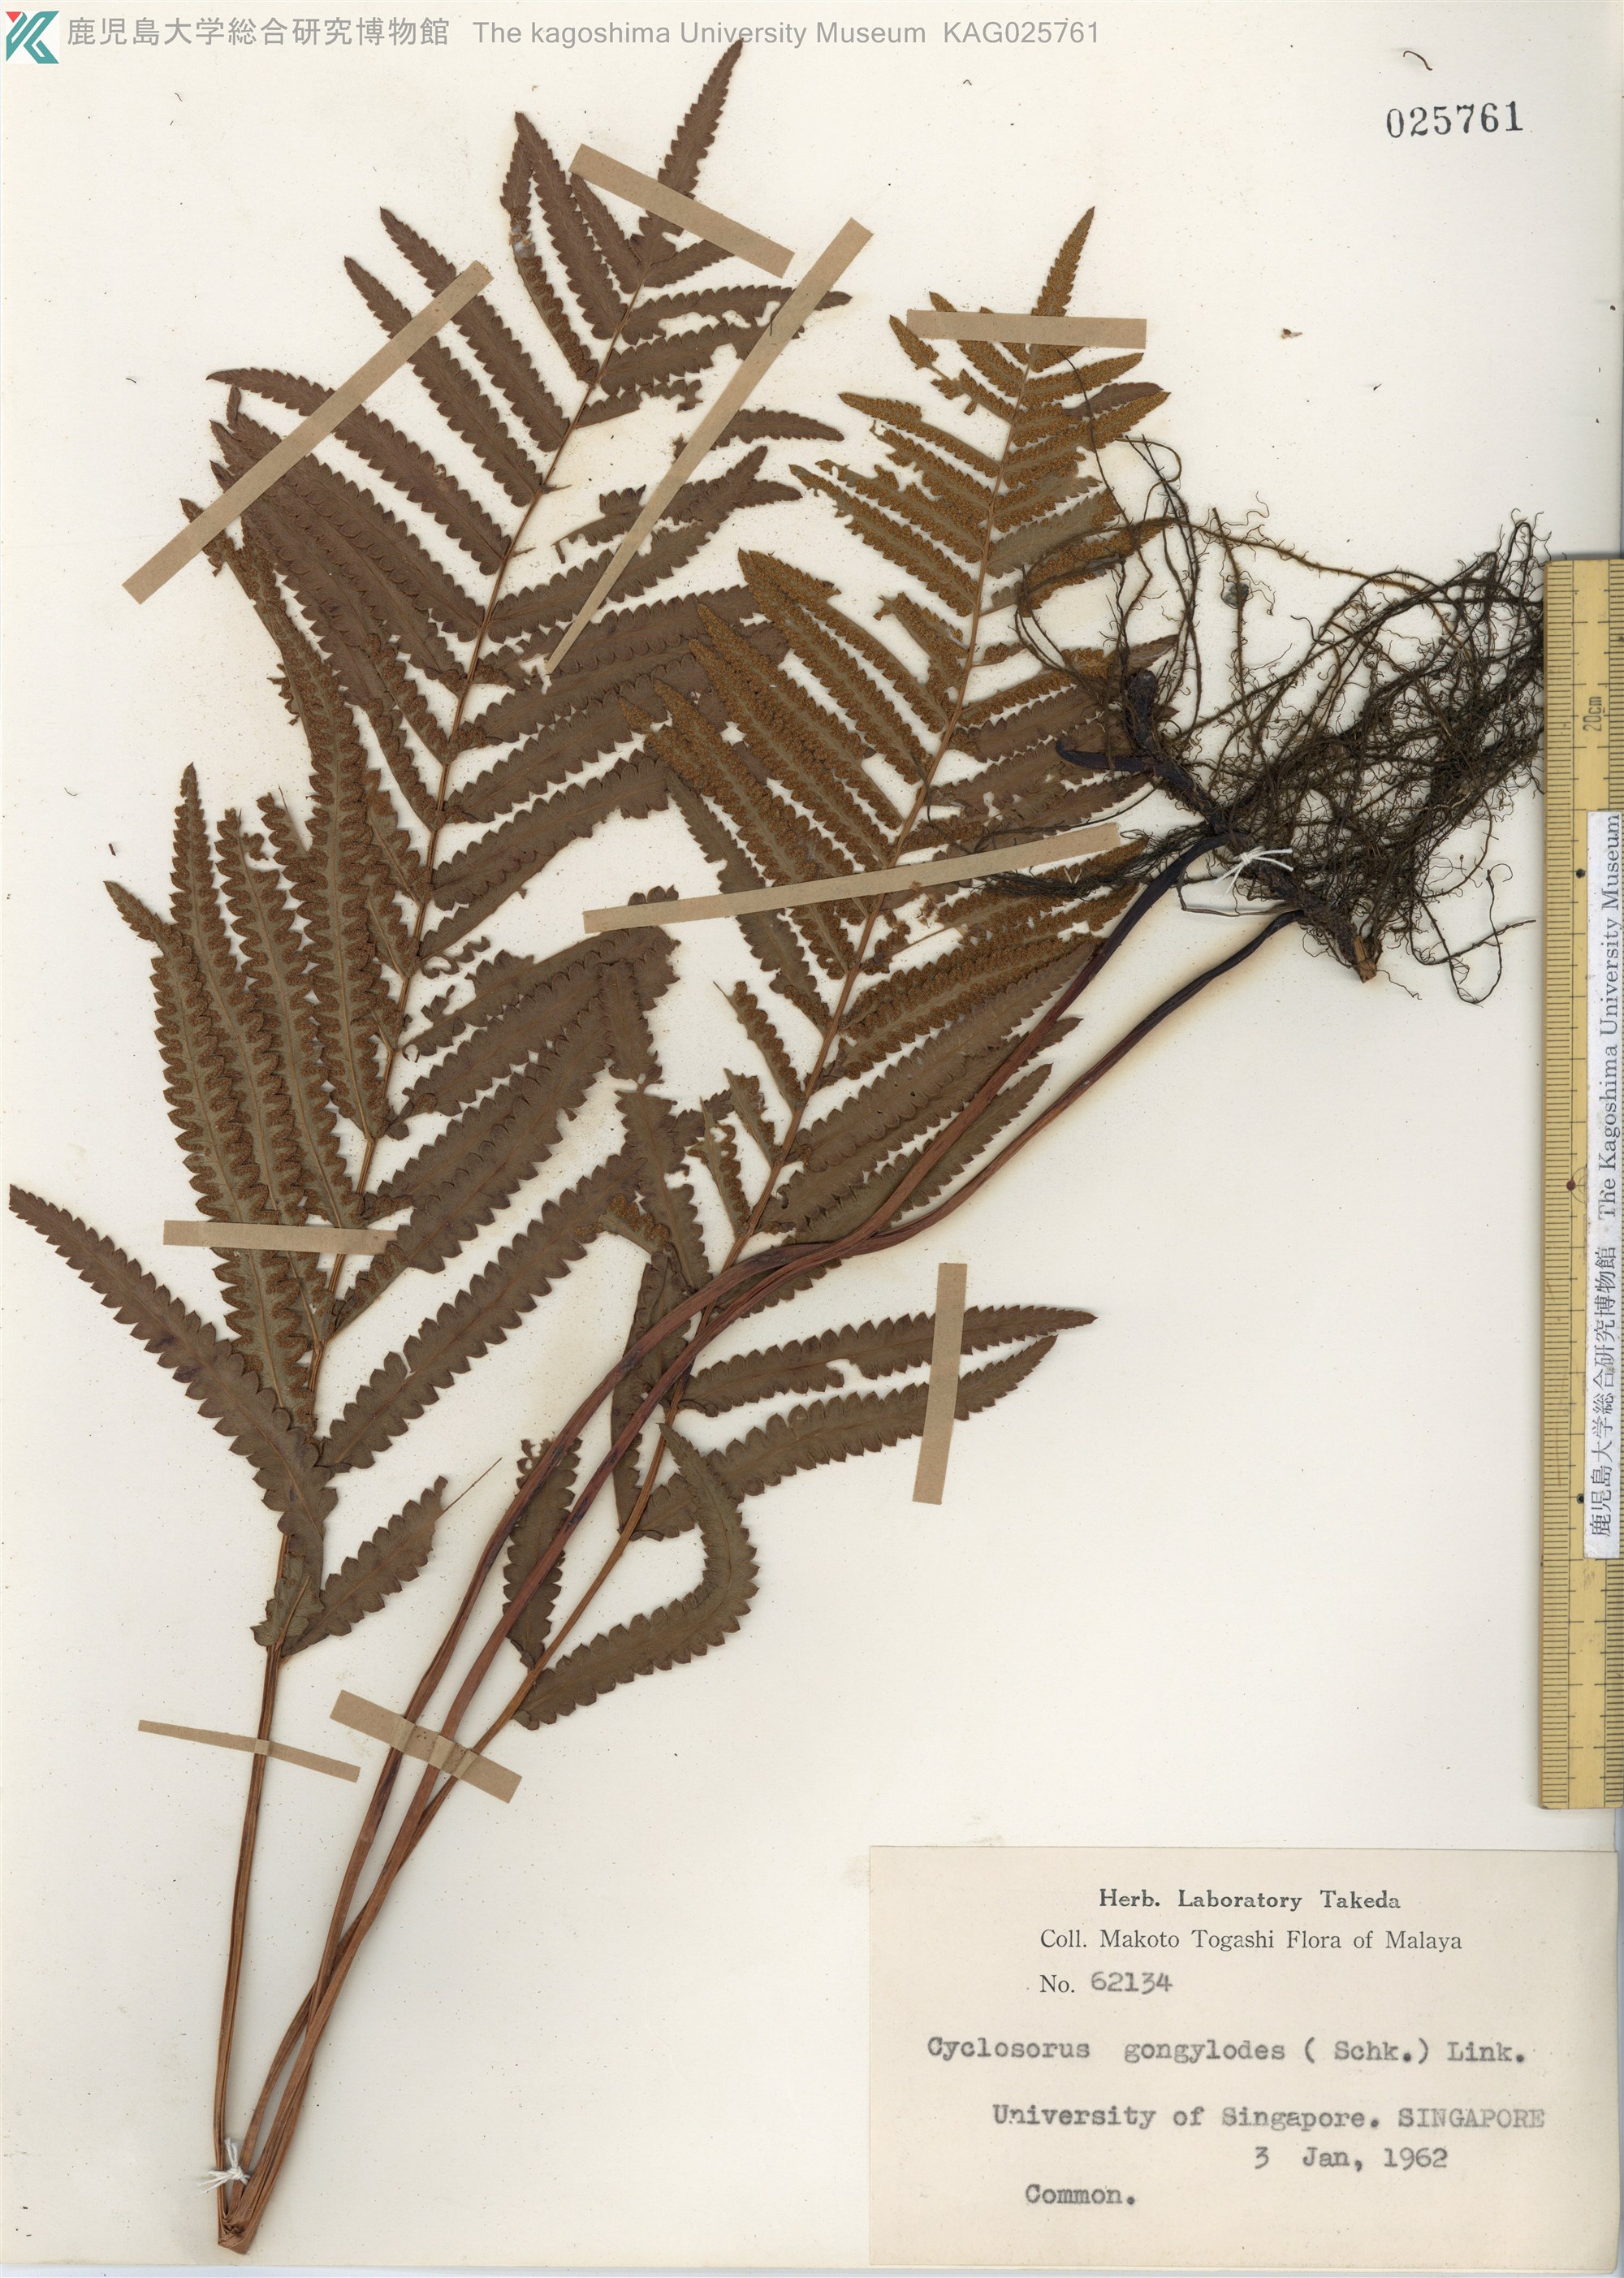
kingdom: Plantae
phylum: Tracheophyta
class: Polypodiopsida
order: Polypodiales
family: Thelypteridaceae
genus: Cyclosorus
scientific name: Cyclosorus interruptus
